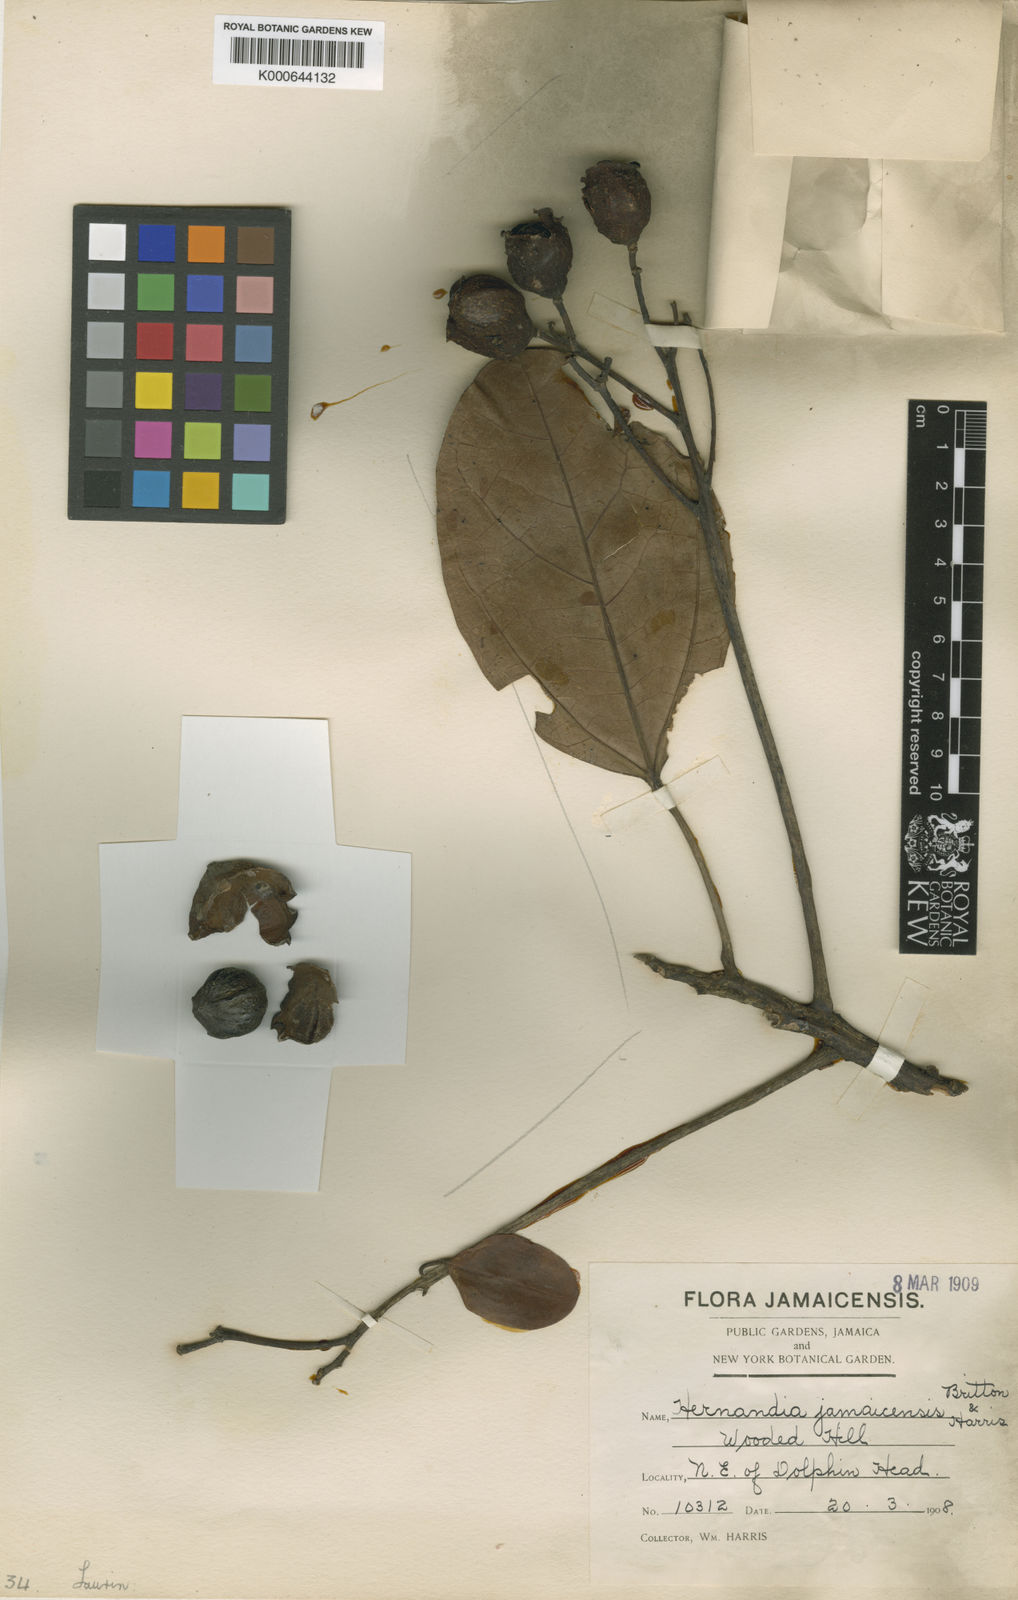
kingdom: Plantae
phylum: Tracheophyta
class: Magnoliopsida
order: Laurales
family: Hernandiaceae
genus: Hernandia
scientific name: Hernandia jamaicensis
